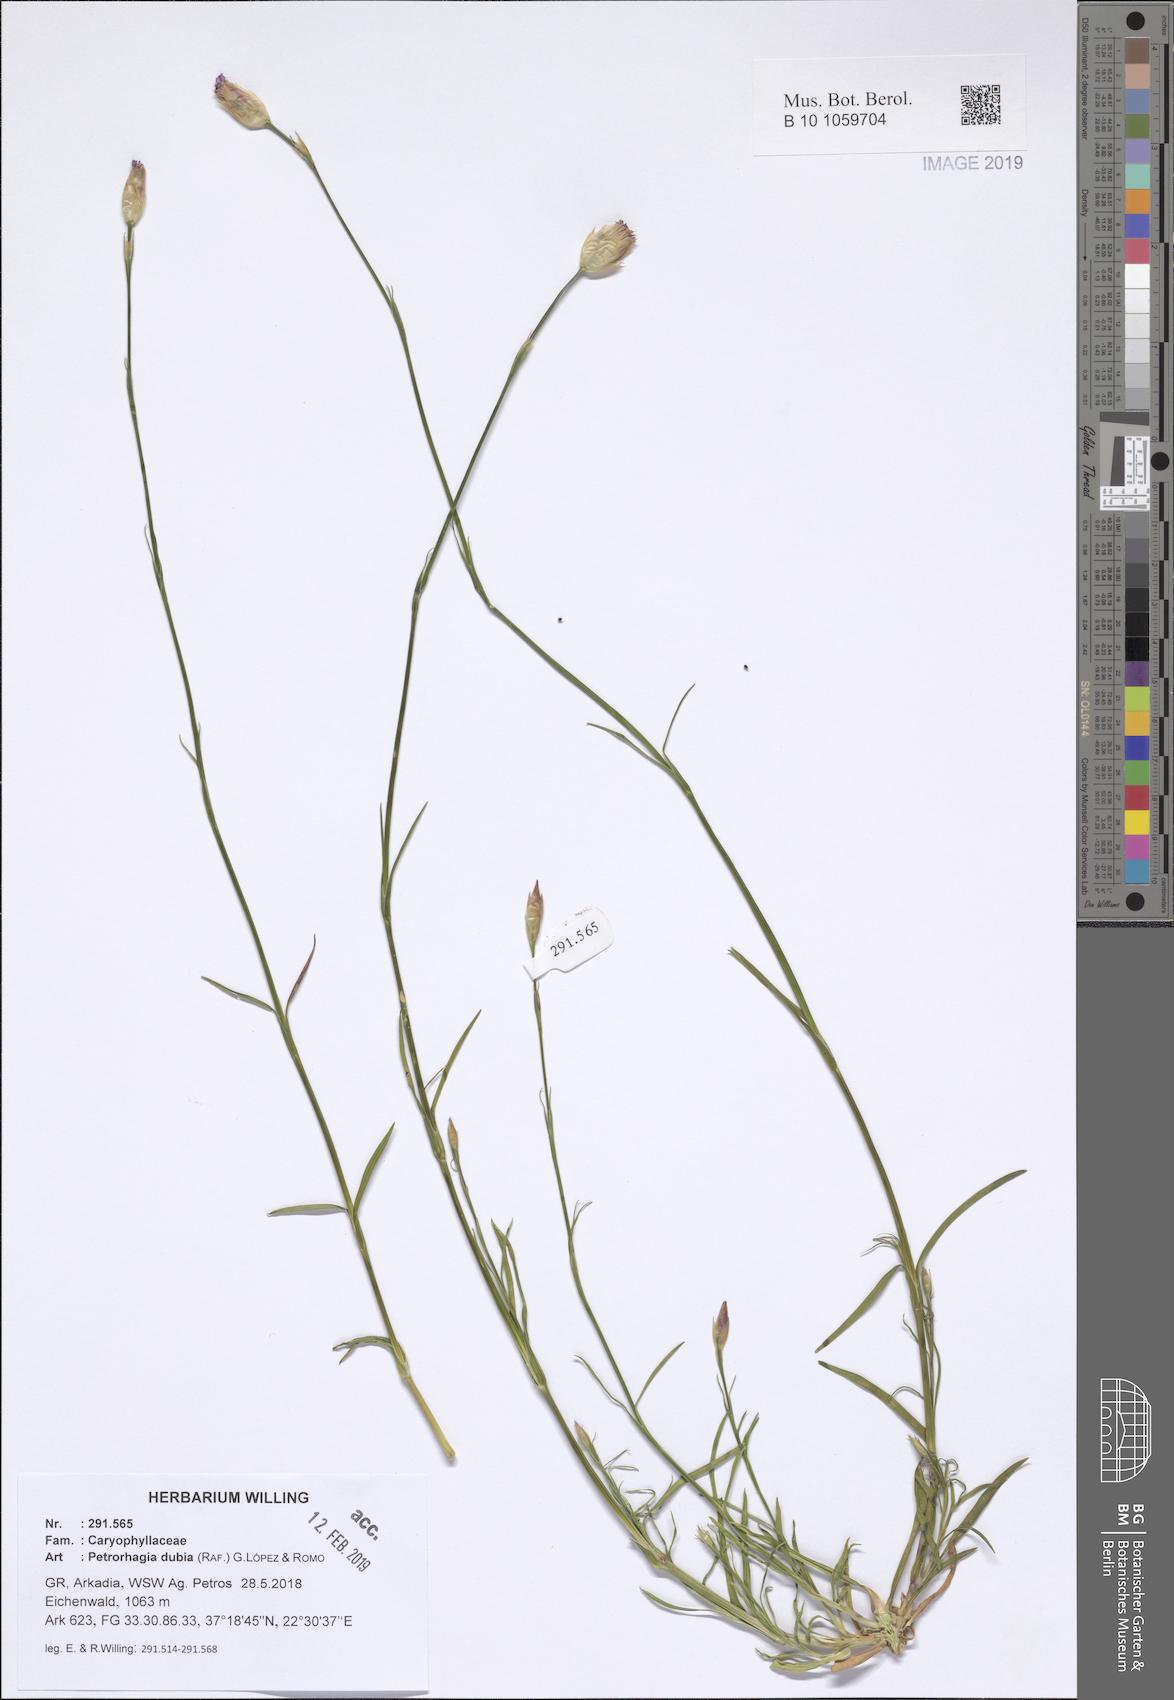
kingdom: Plantae
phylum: Tracheophyta
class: Magnoliopsida
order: Caryophyllales
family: Caryophyllaceae
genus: Petrorhagia
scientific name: Petrorhagia dubia
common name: Hairypink
